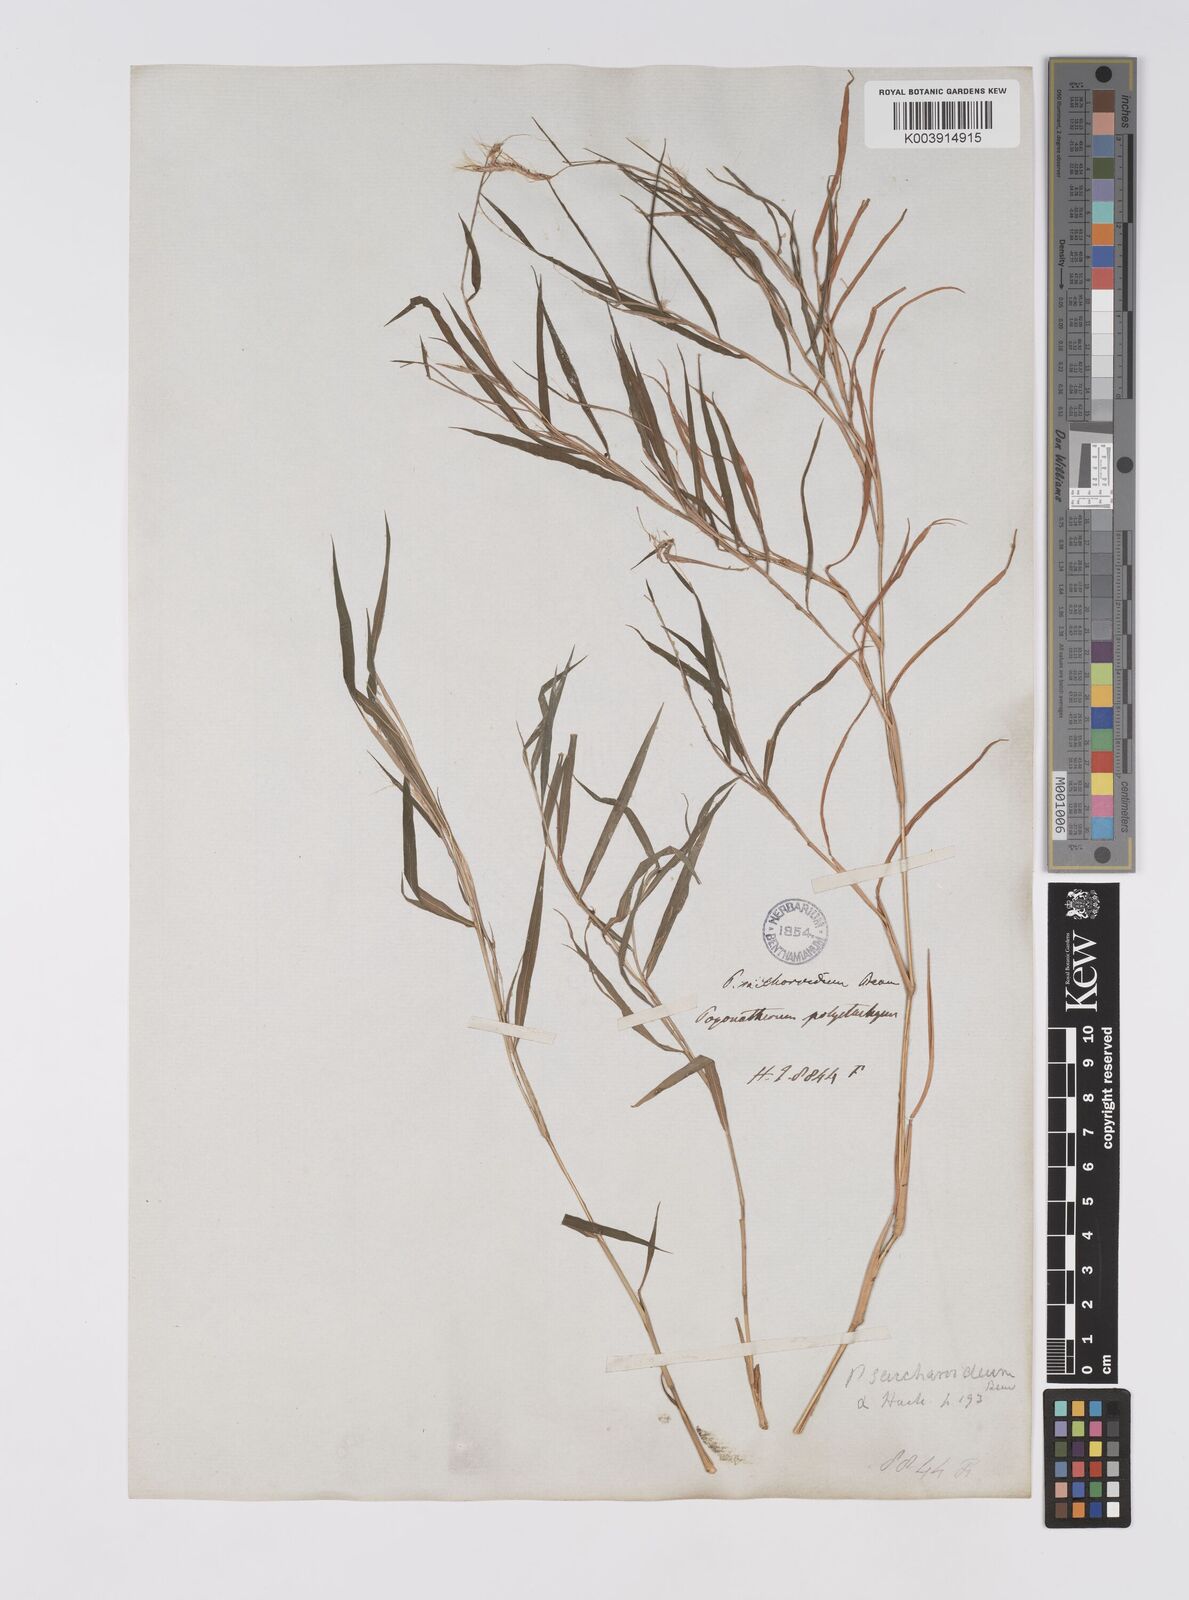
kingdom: Plantae
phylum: Tracheophyta
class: Liliopsida
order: Poales
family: Poaceae
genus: Pogonatherum
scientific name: Pogonatherum paniceum
